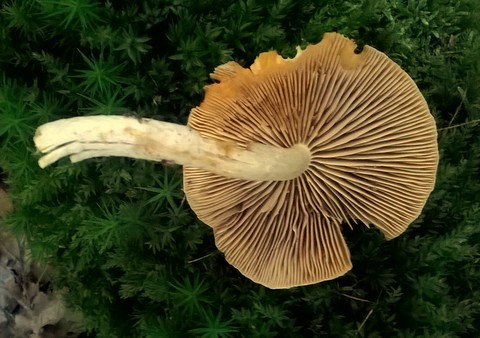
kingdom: Fungi
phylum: Basidiomycota
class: Agaricomycetes
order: Agaricales
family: Strophariaceae
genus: Pyrrhulomyces
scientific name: Pyrrhulomyces astragalinus
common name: safran-skælhat
